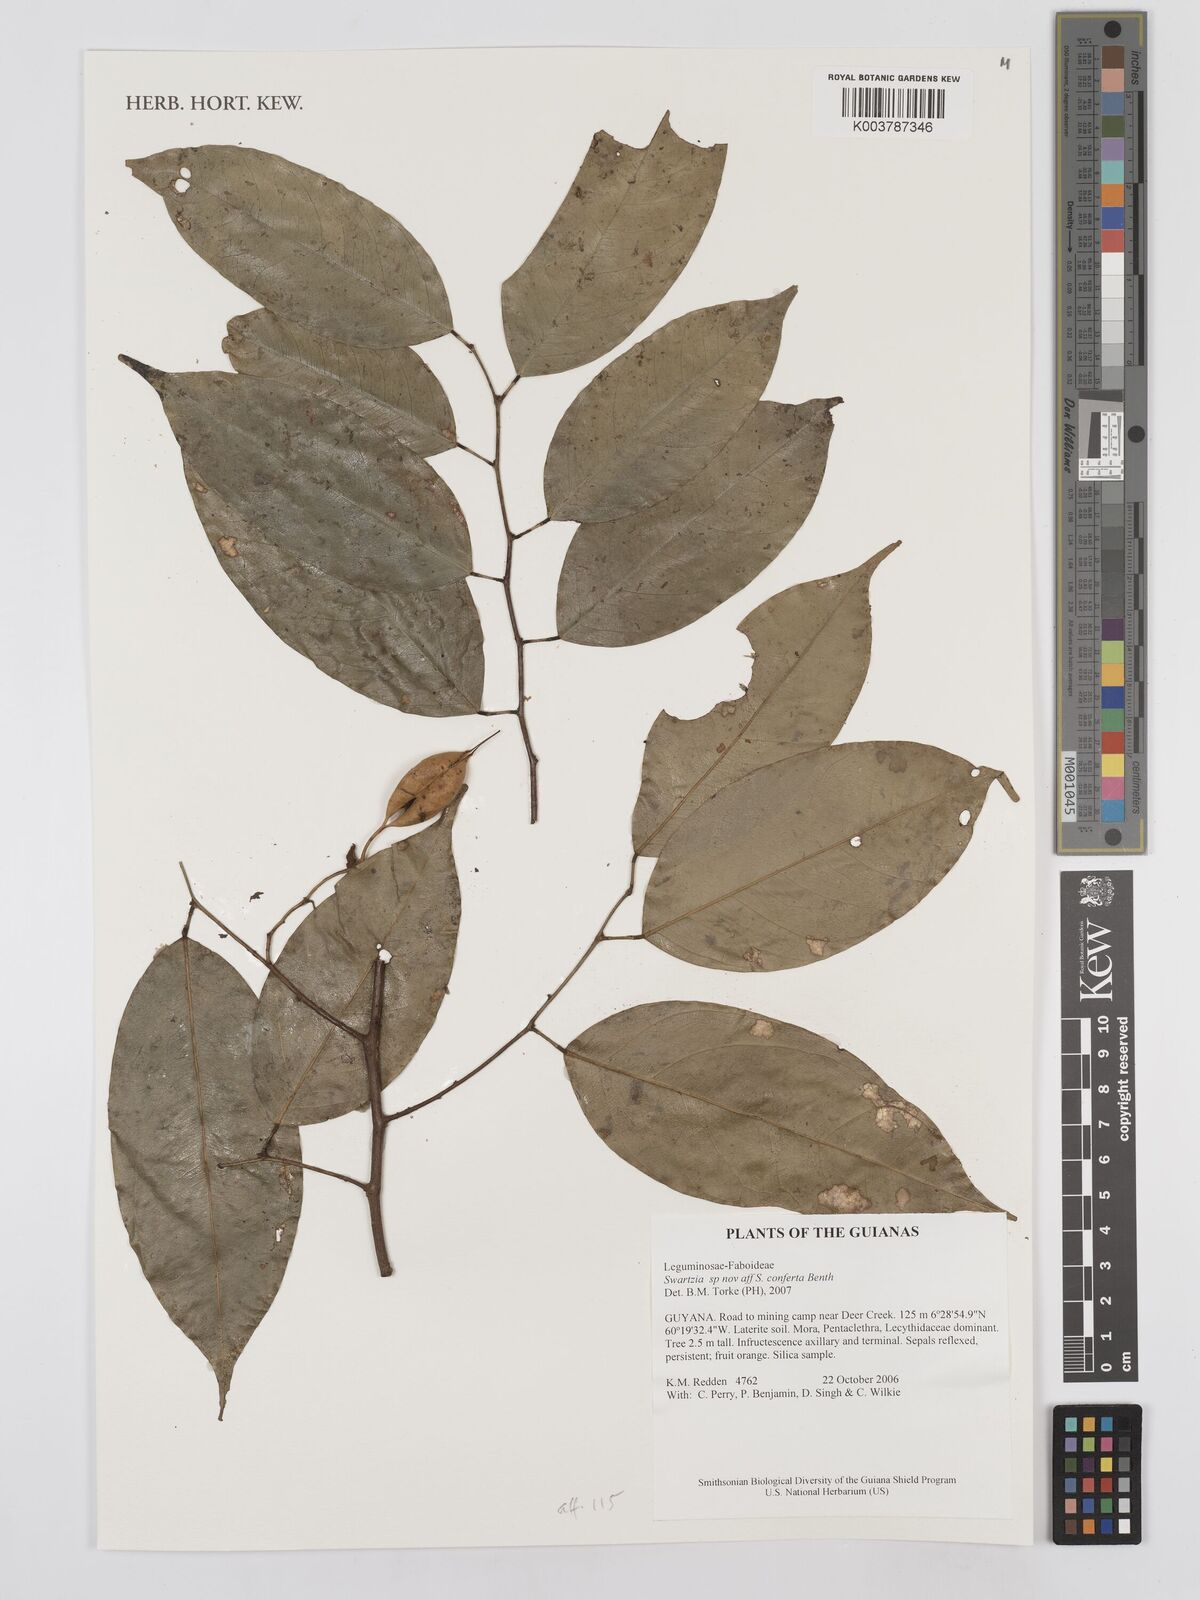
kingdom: Plantae
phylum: Tracheophyta
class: Magnoliopsida
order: Fabales
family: Fabaceae
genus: Swartzia
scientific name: Swartzia conferta
